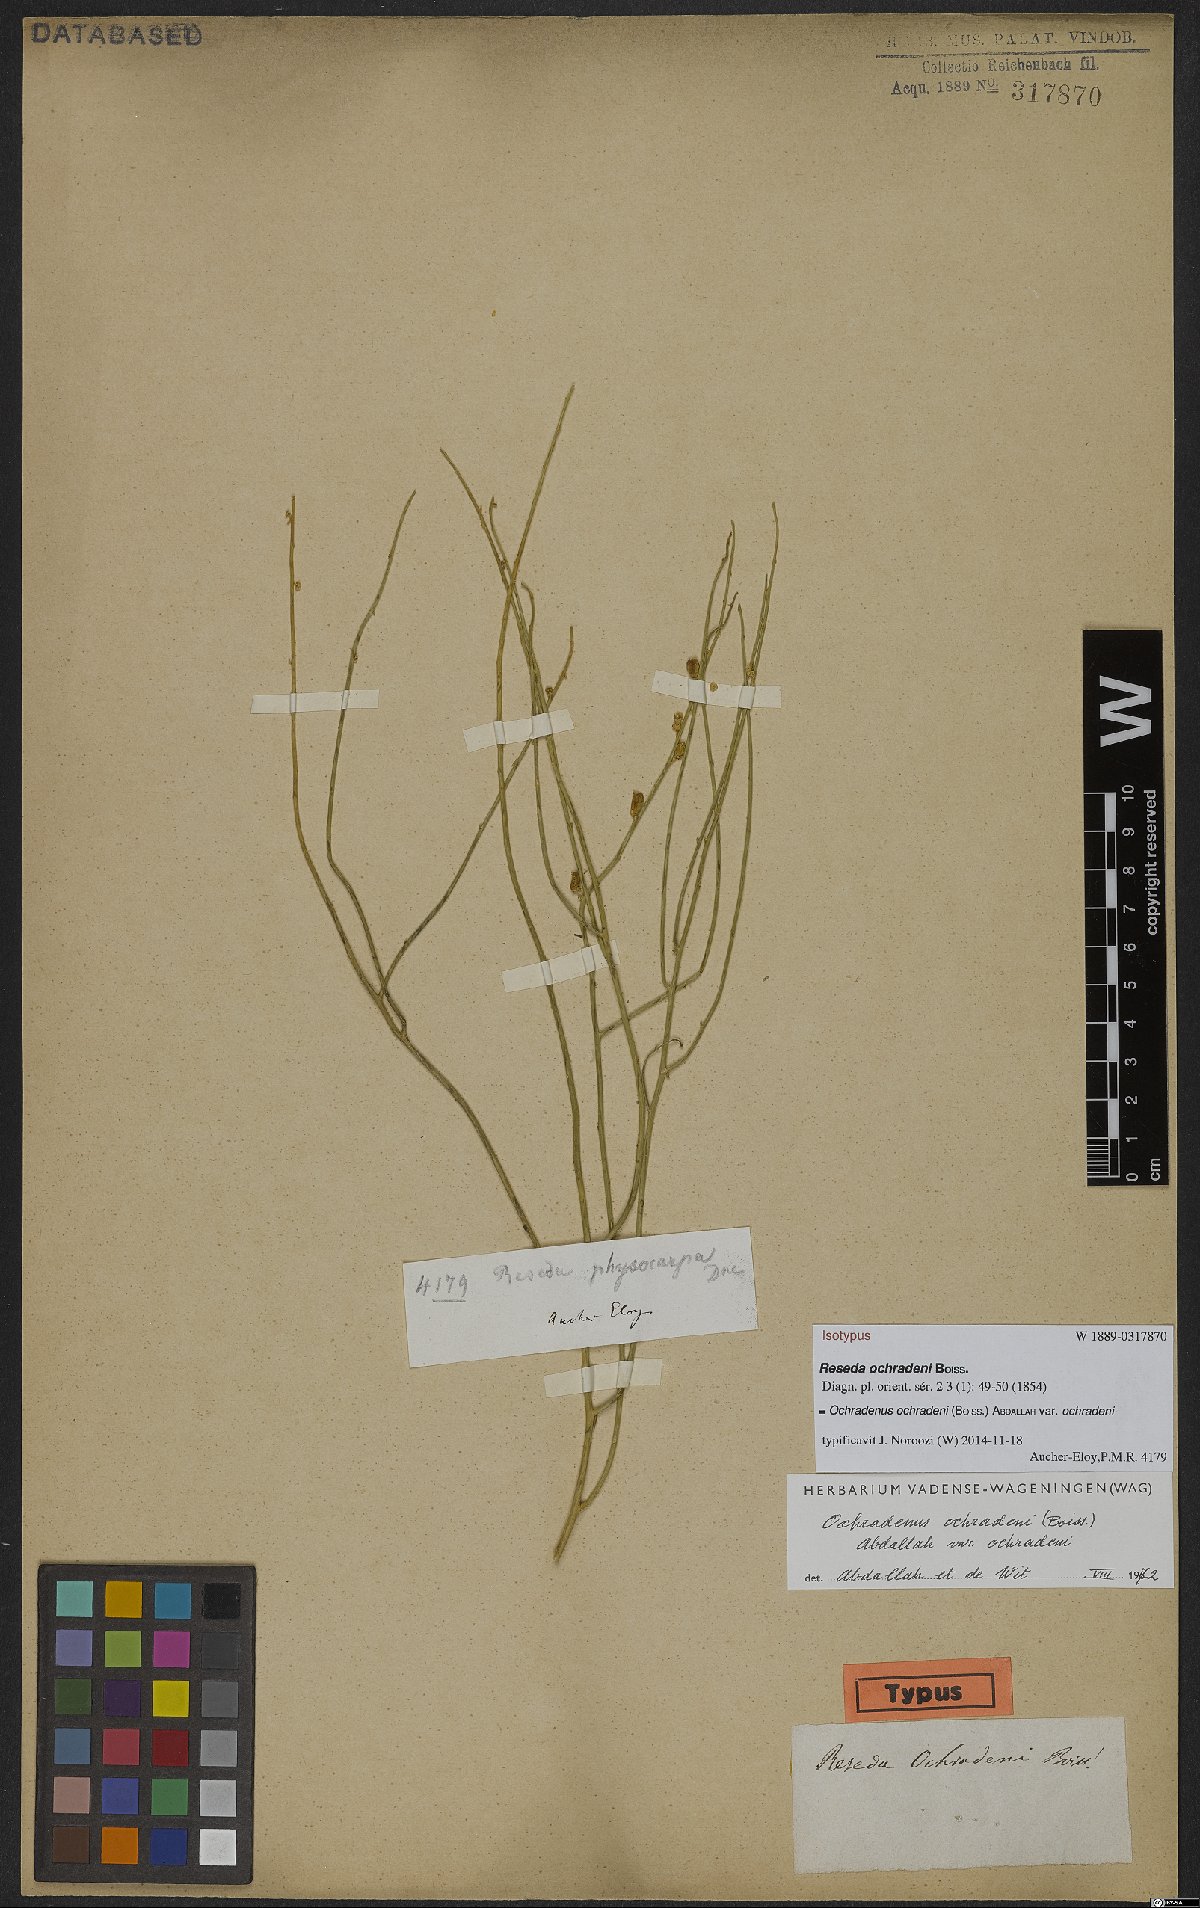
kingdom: Plantae
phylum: Tracheophyta
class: Magnoliopsida
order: Brassicales
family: Resedaceae
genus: Ochradiscus
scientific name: Ochradiscus ochradeni
